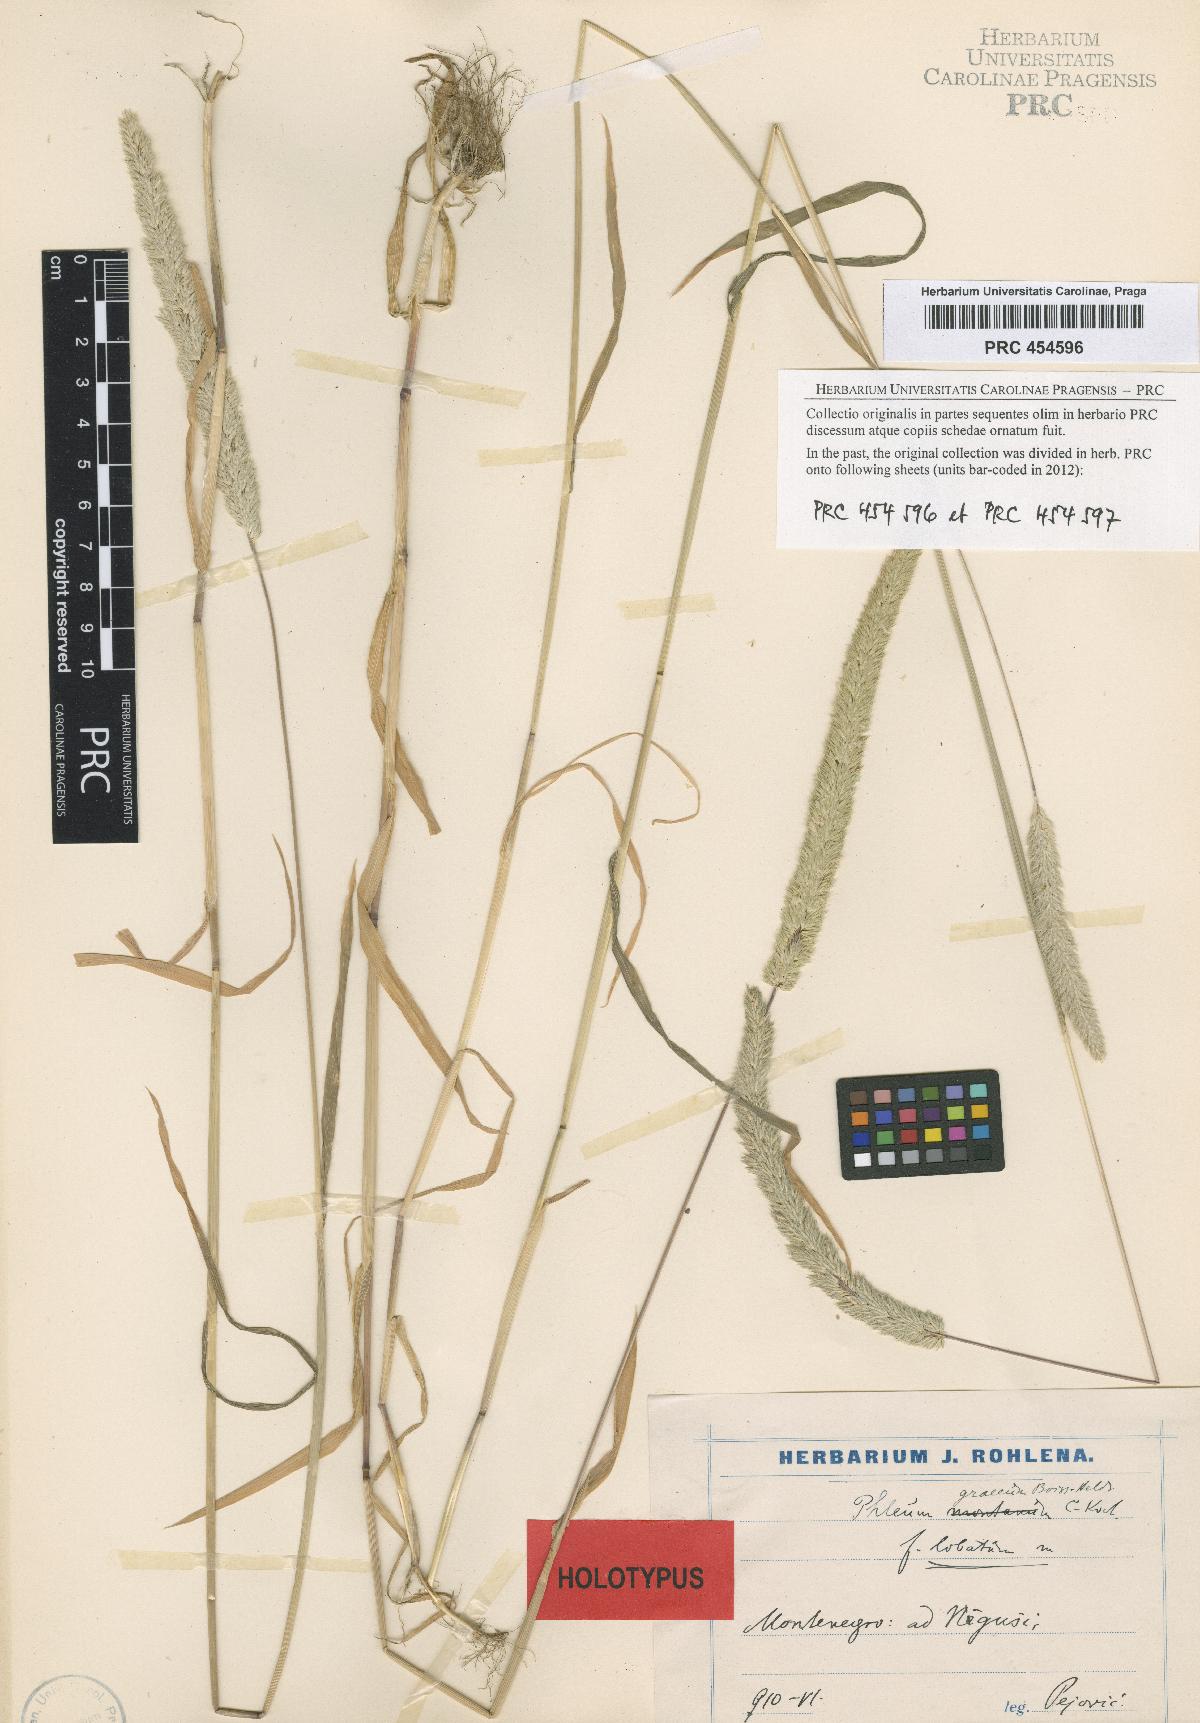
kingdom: Plantae
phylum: Tracheophyta
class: Liliopsida
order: Poales
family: Poaceae
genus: Phleum
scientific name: Phleum
